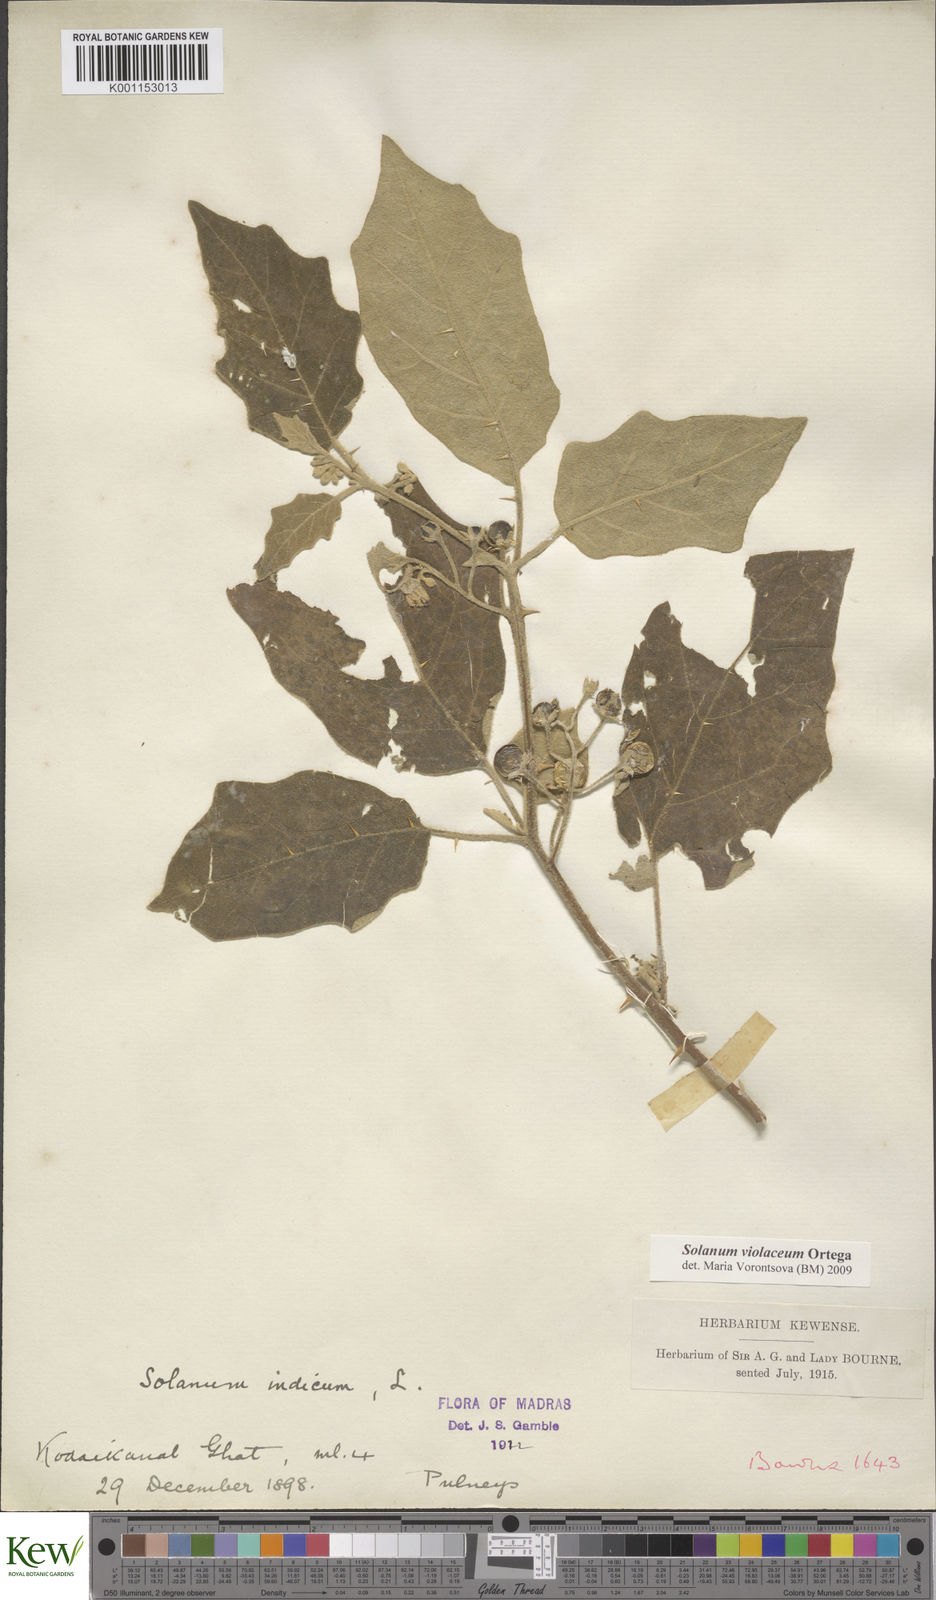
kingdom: Plantae
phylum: Tracheophyta
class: Magnoliopsida
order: Solanales
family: Solanaceae
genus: Solanum
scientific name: Solanum violaceum
